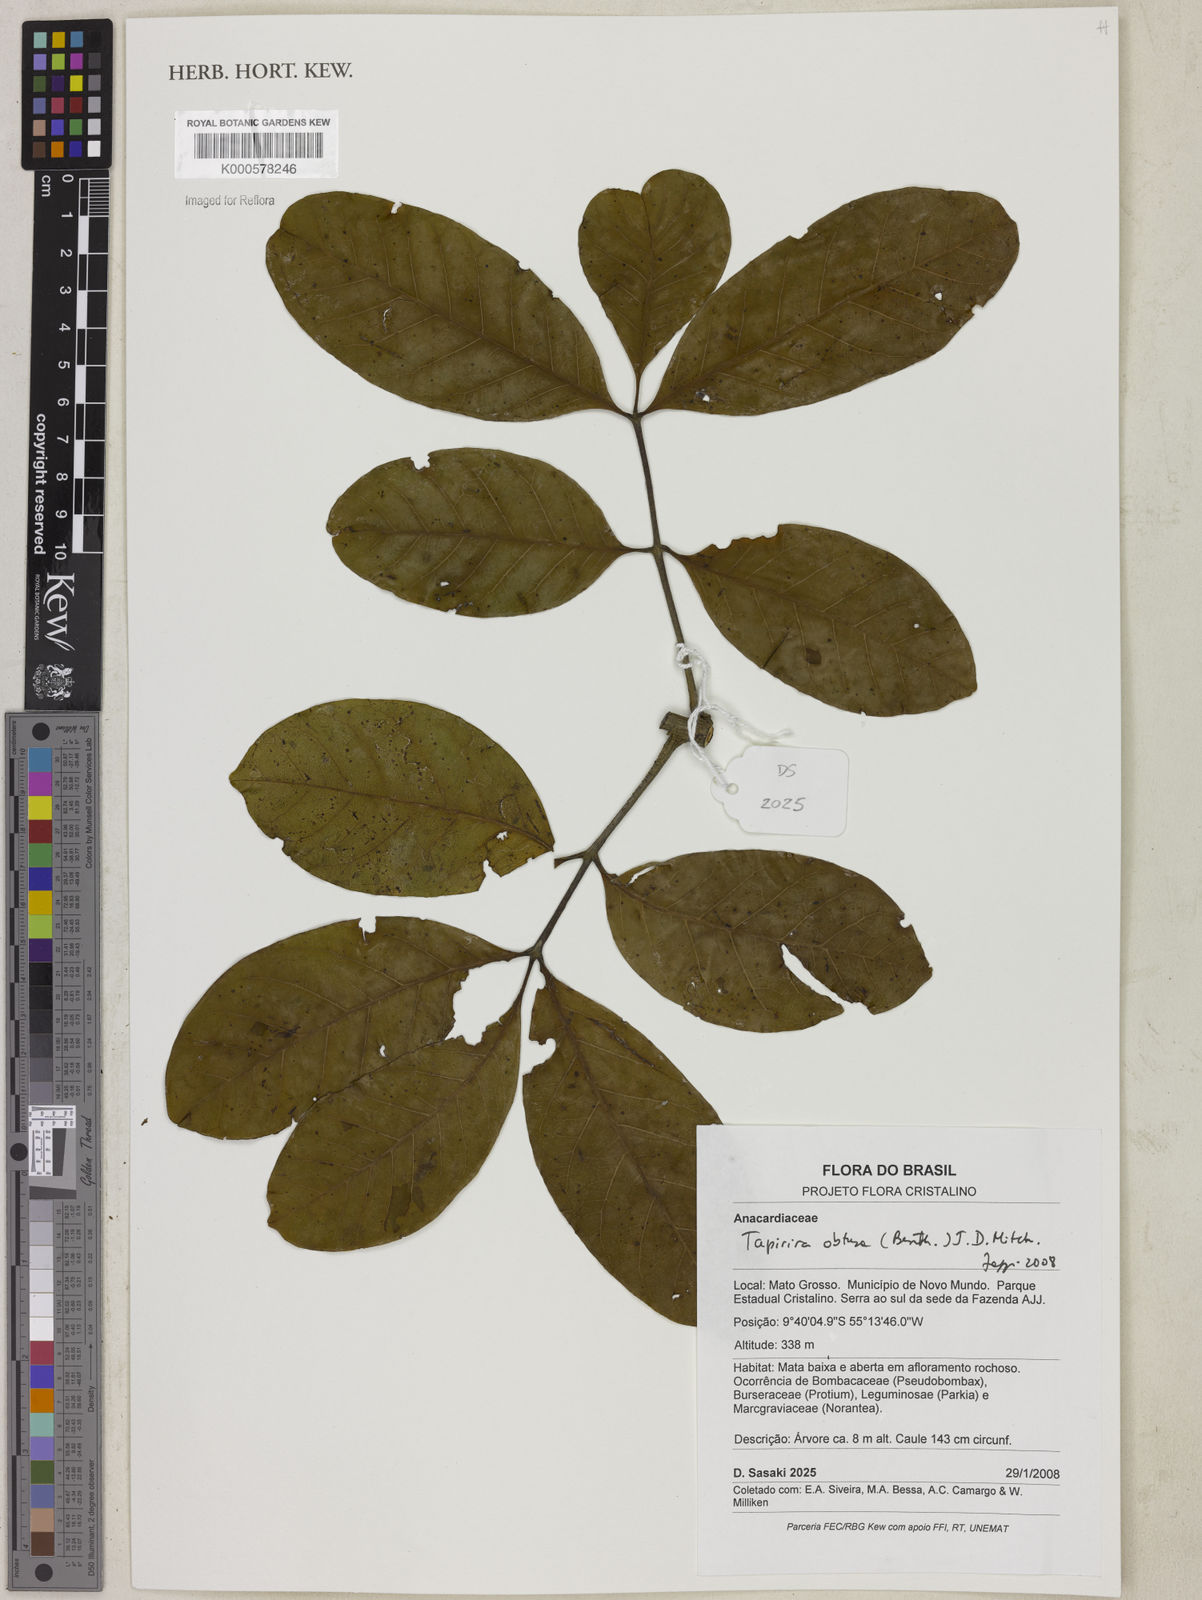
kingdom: Plantae
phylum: Tracheophyta
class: Magnoliopsida
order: Sapindales
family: Anacardiaceae
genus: Tapirira
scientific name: Tapirira obtusa
